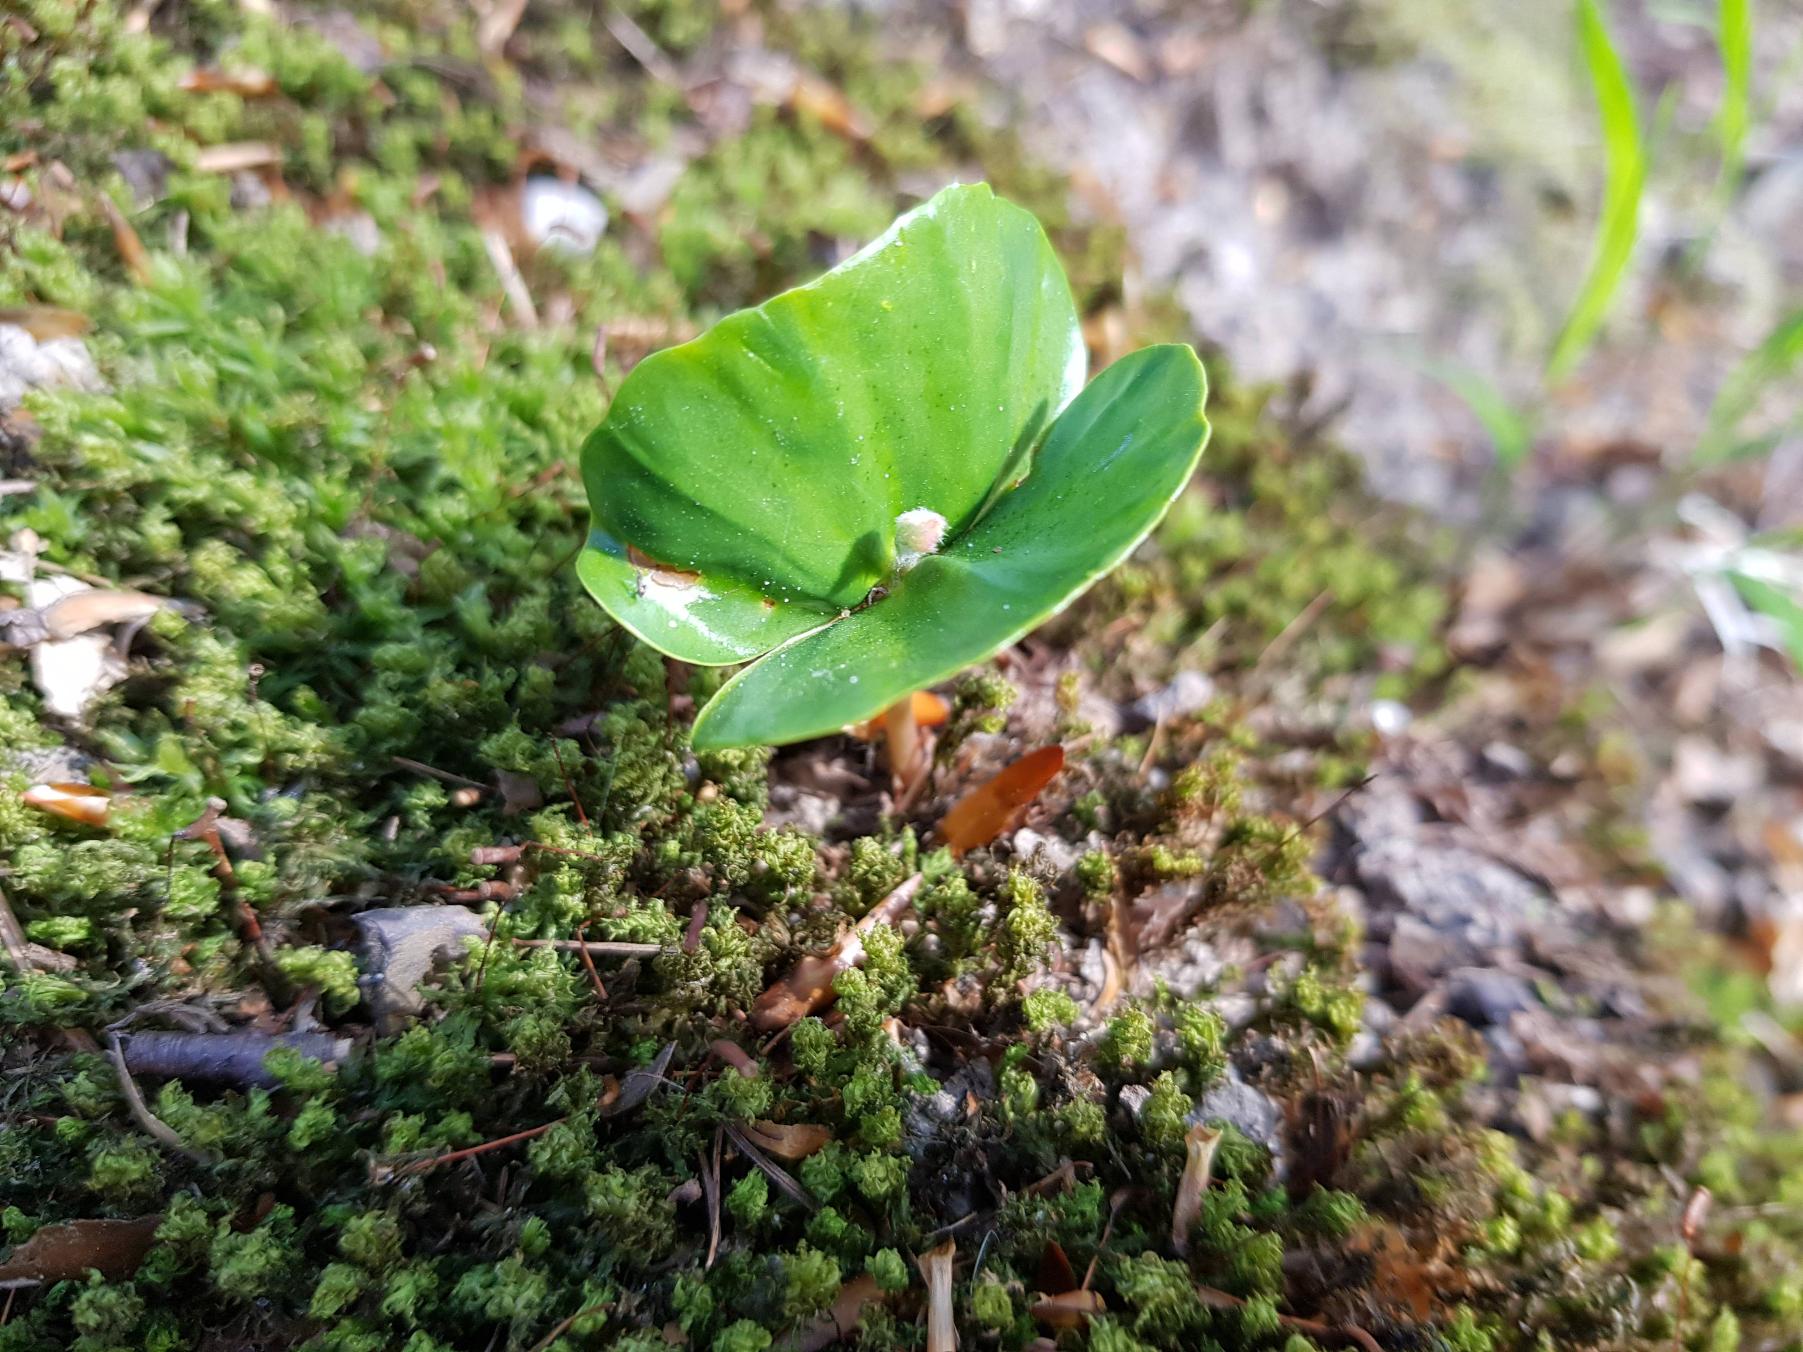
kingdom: Plantae
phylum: Tracheophyta
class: Magnoliopsida
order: Fagales
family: Fagaceae
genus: Fagus
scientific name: Fagus sylvatica
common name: Bøg
